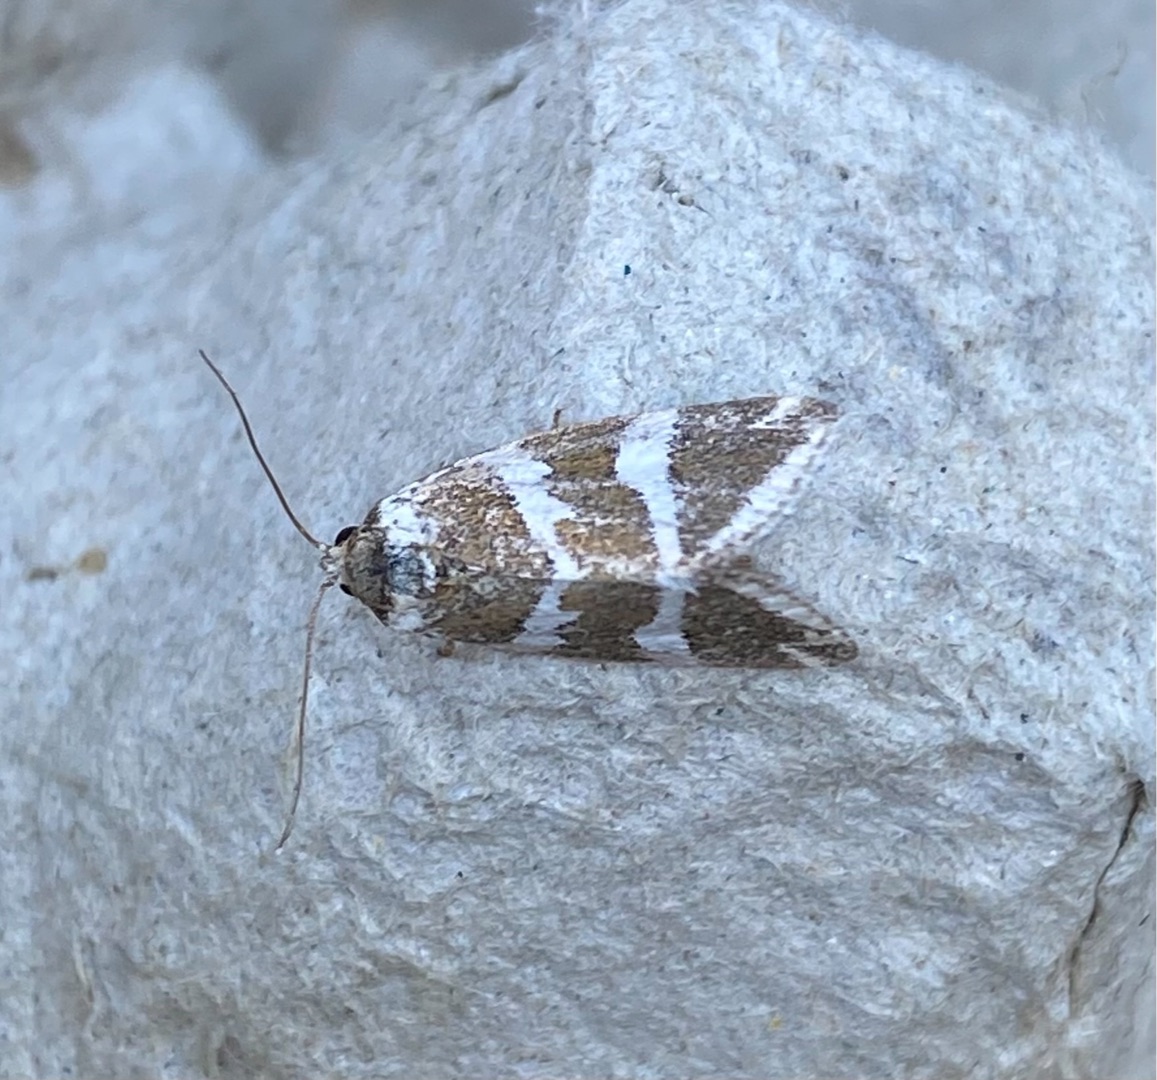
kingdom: Animalia
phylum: Arthropoda
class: Insecta
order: Lepidoptera
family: Noctuidae
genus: Deltote
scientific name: Deltote bankiana
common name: Tvebånd-dagugle
